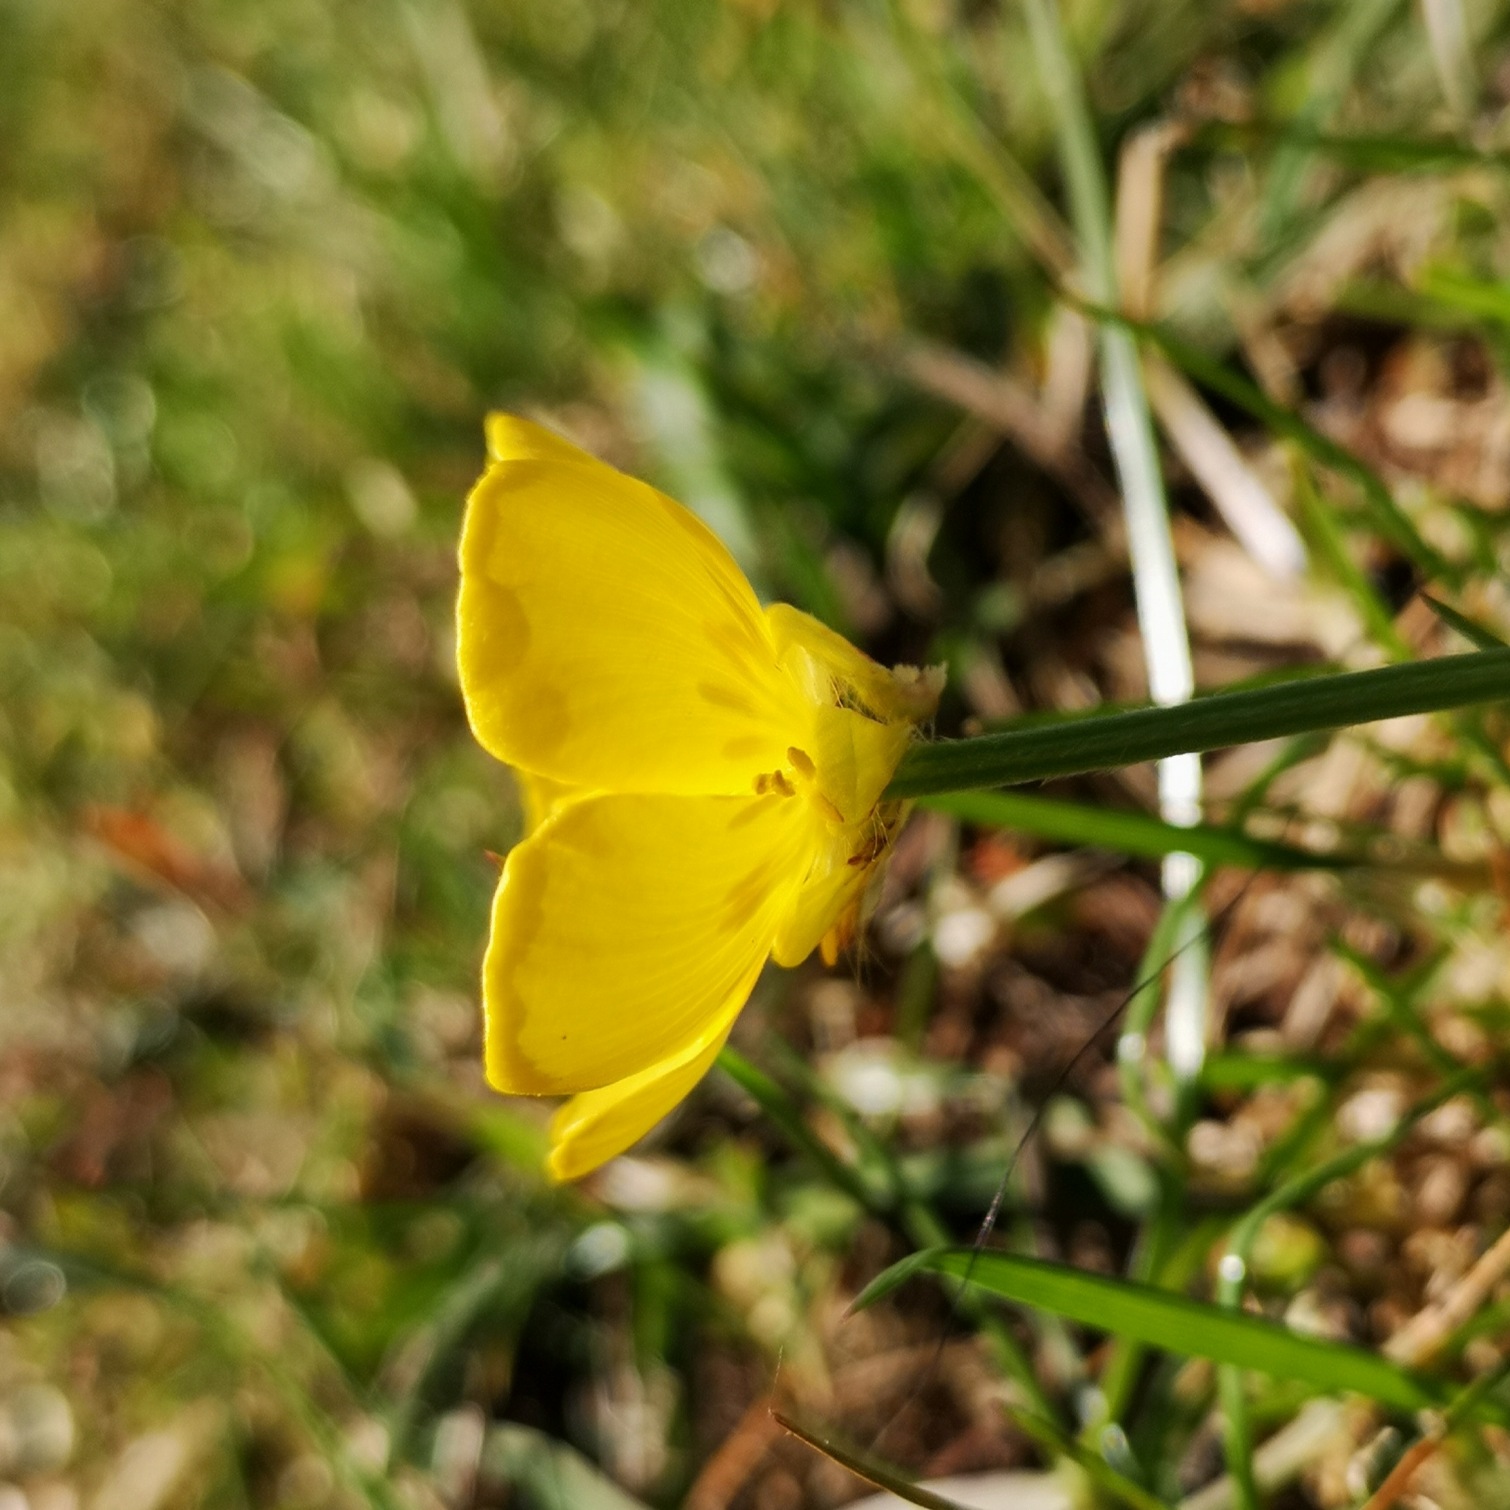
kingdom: Plantae
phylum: Tracheophyta
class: Magnoliopsida
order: Ranunculales
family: Ranunculaceae
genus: Ranunculus
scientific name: Ranunculus bulbosus
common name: Knold-ranunkel
